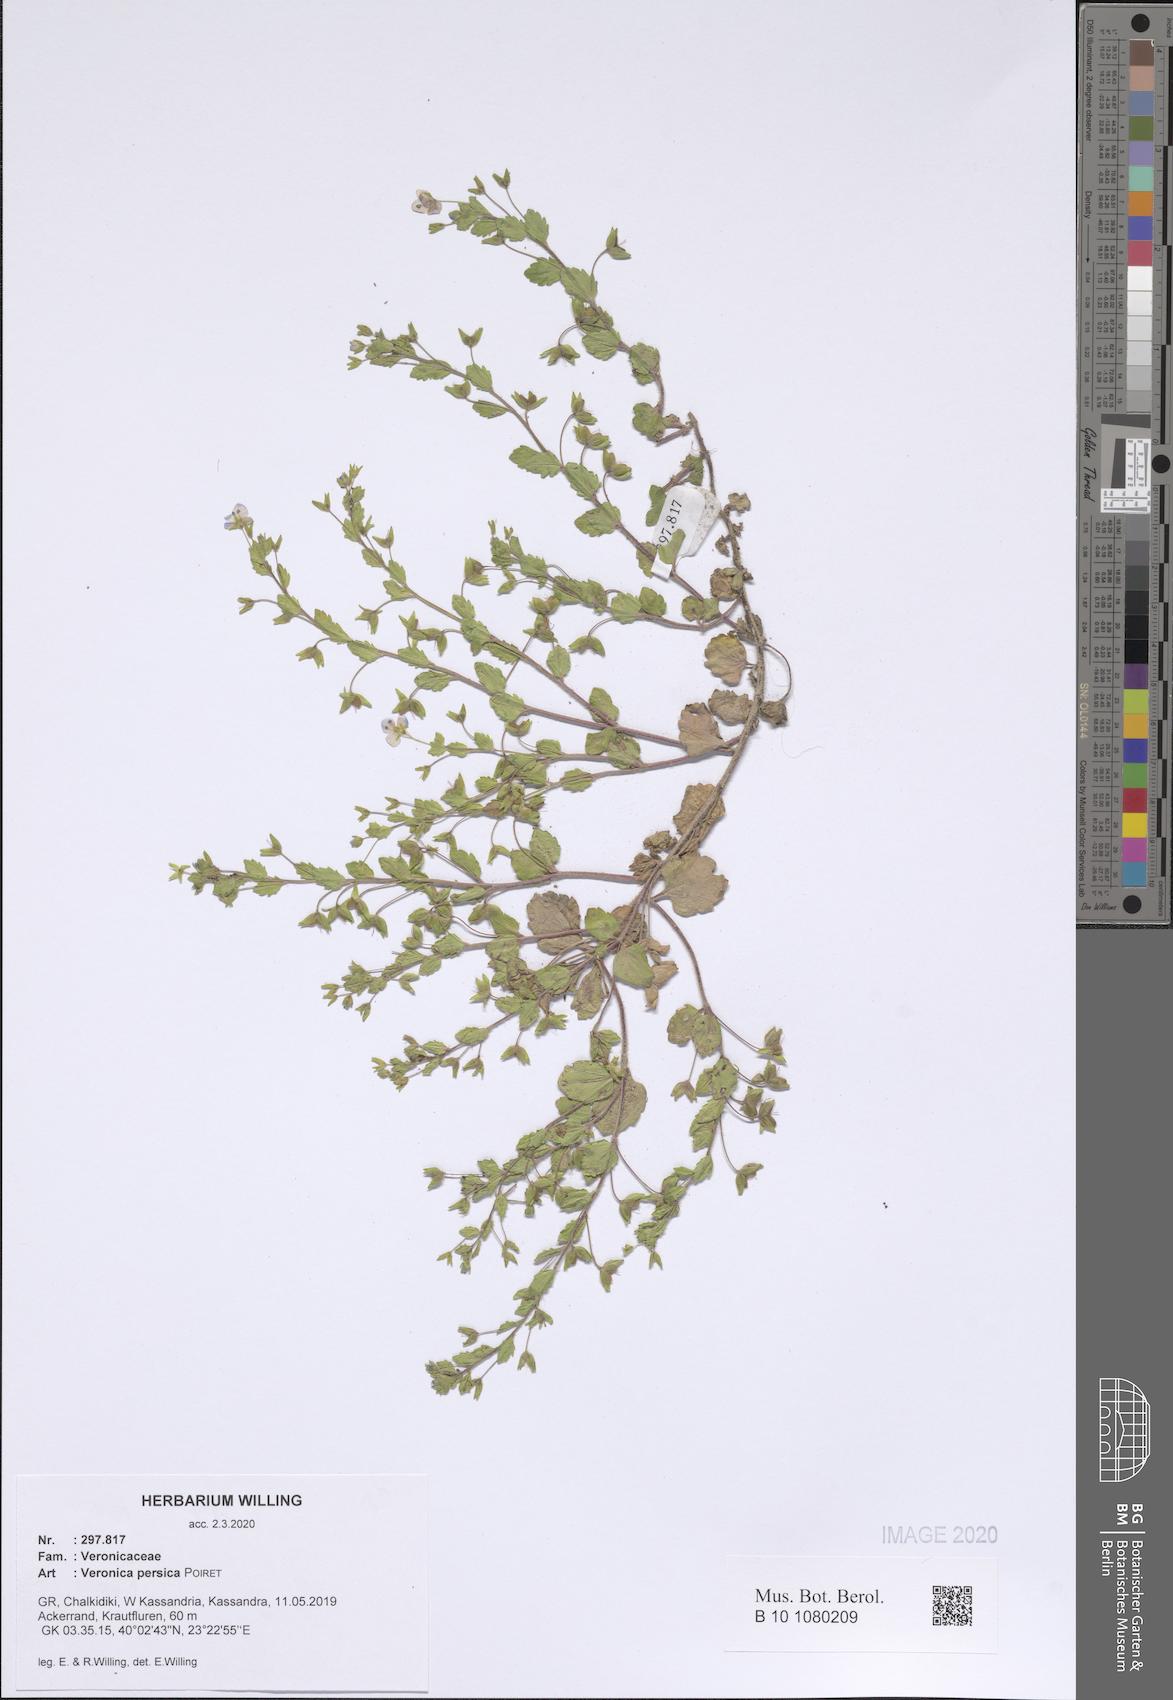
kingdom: Plantae
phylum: Tracheophyta
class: Magnoliopsida
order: Lamiales
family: Plantaginaceae
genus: Veronica
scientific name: Veronica persica
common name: Common field-speedwell
